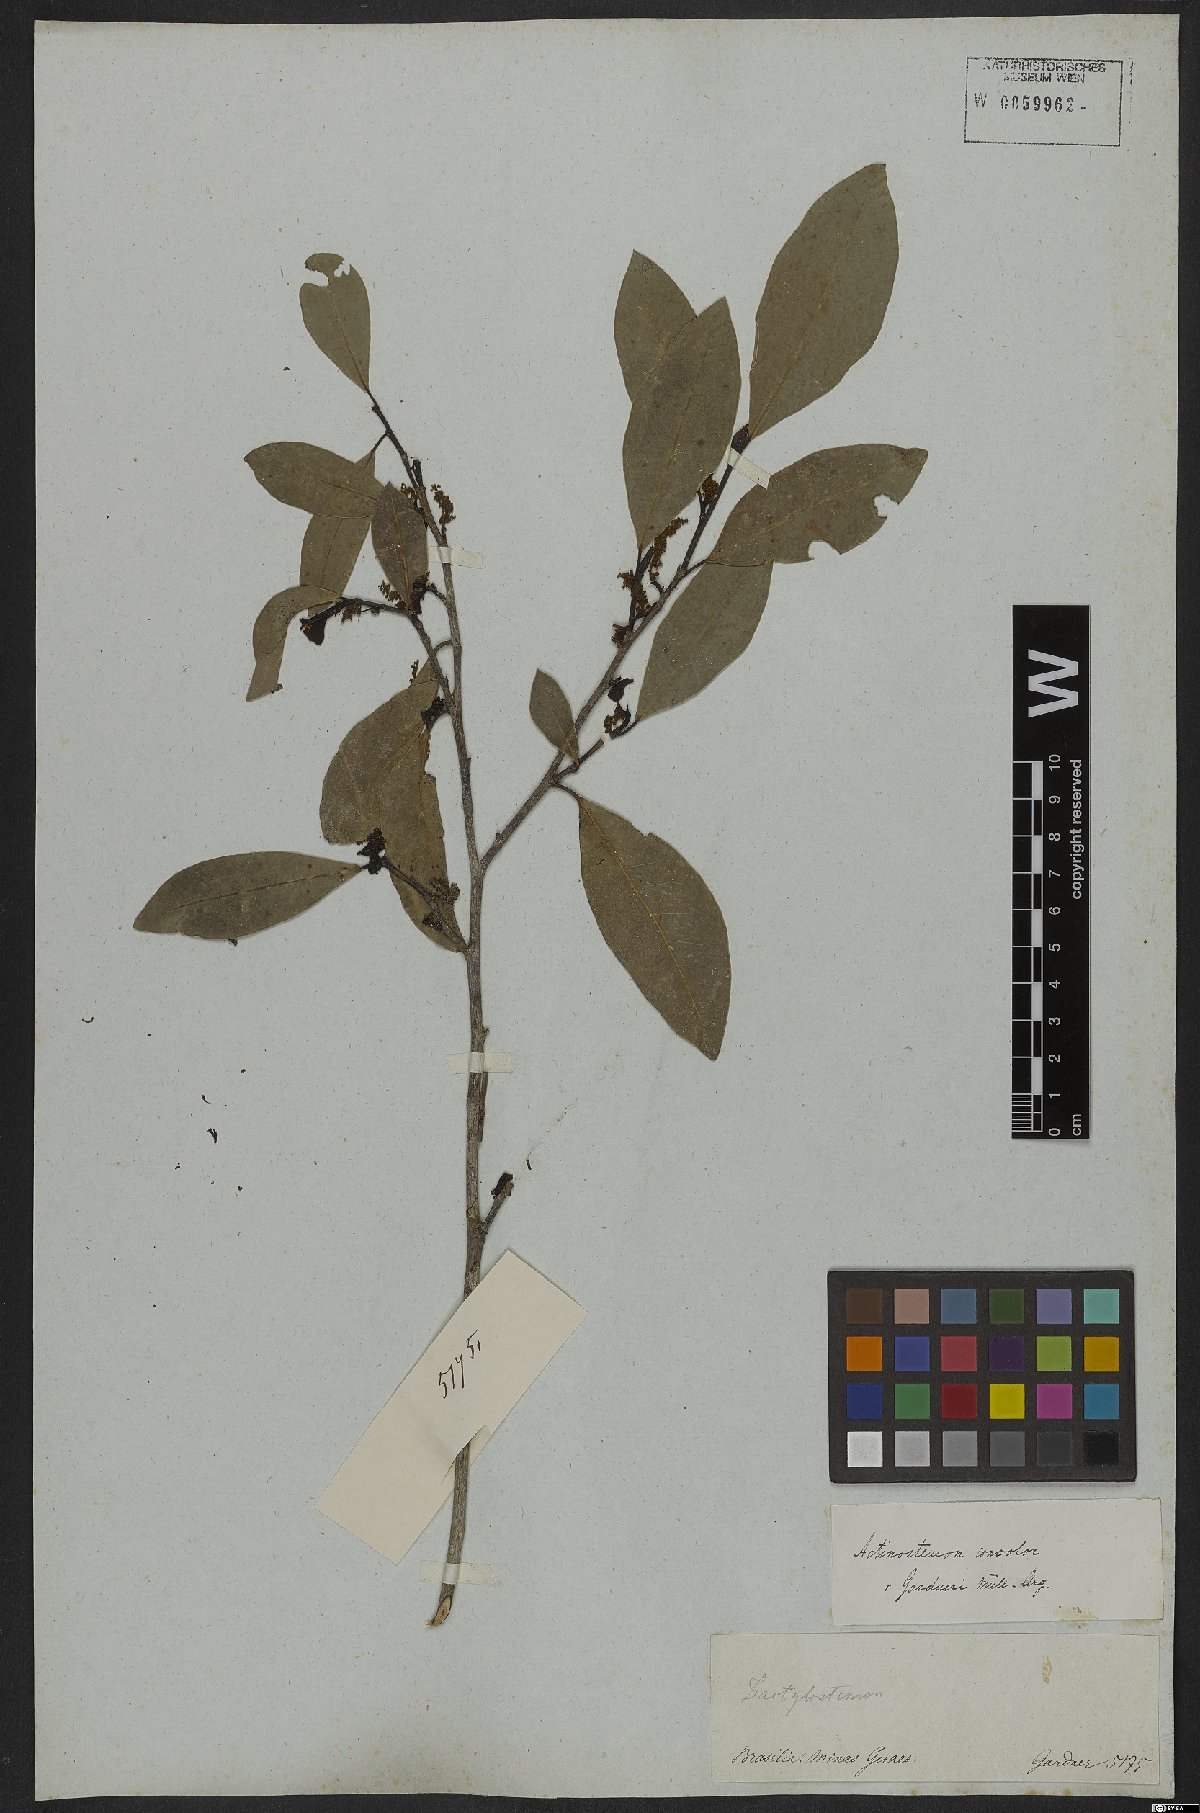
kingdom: Plantae
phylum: Tracheophyta
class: Magnoliopsida
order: Malpighiales
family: Euphorbiaceae
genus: Actinostemon
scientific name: Actinostemon concolor
